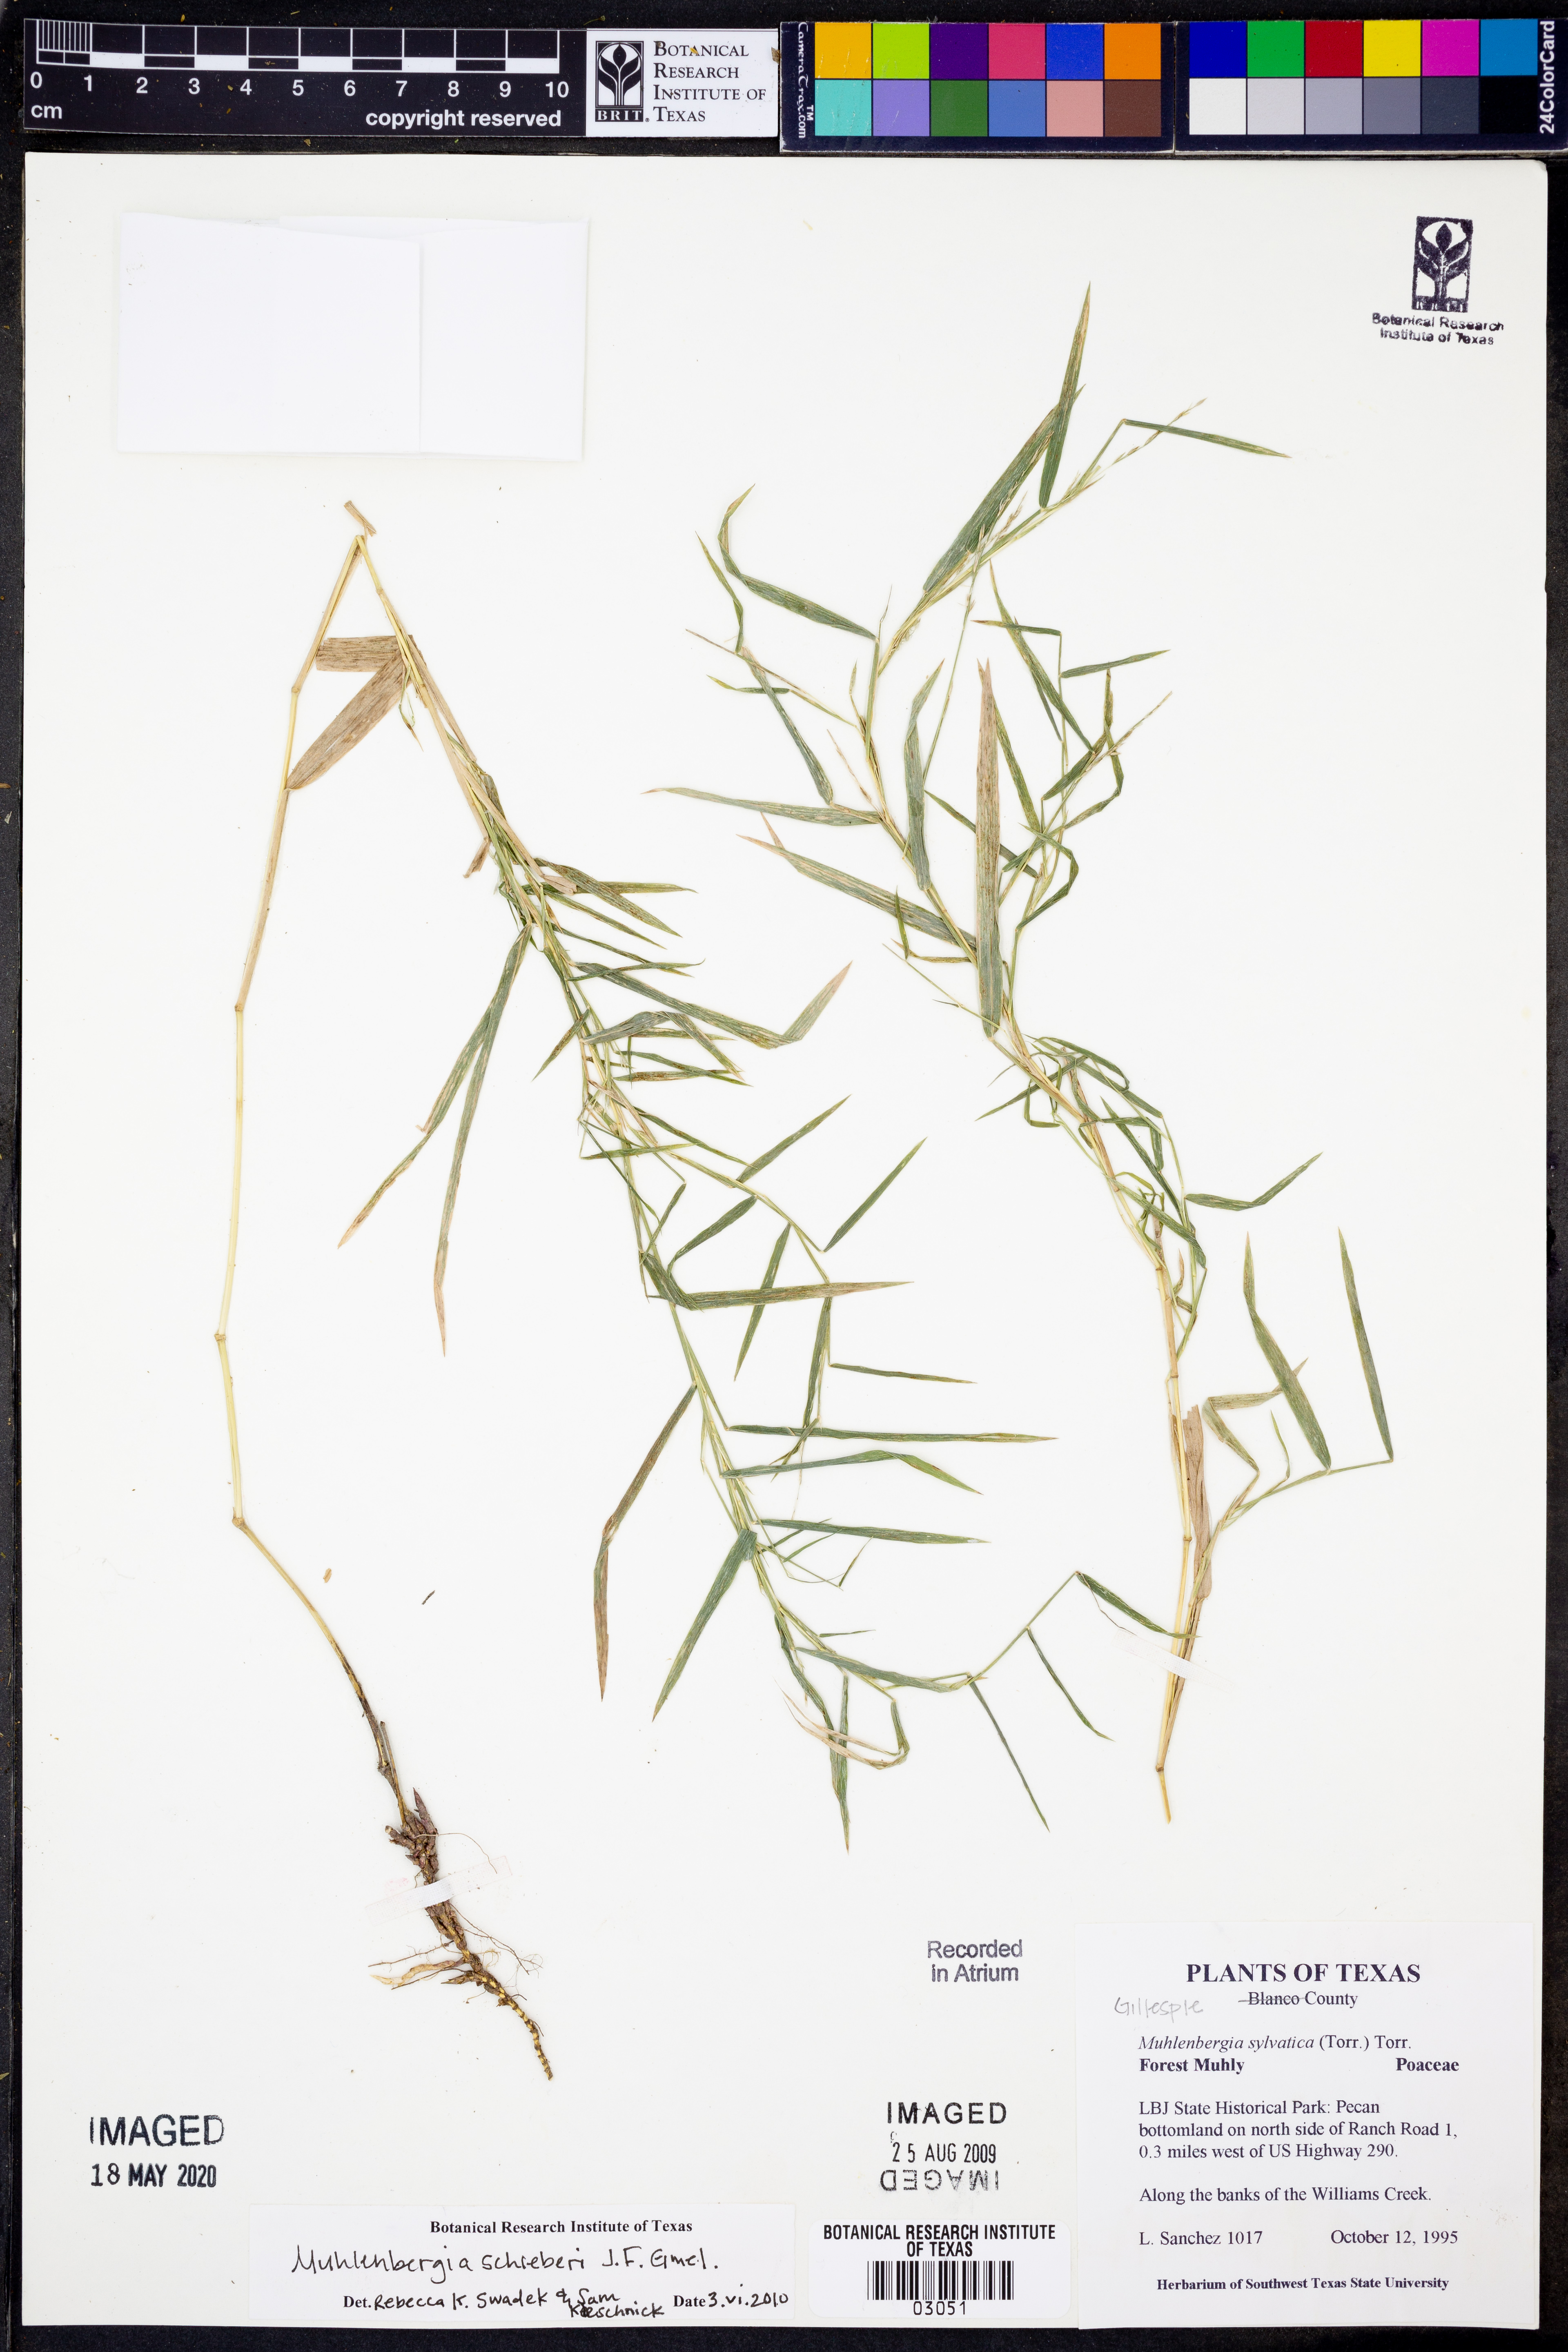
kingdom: Plantae
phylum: Tracheophyta
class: Liliopsida
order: Poales
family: Poaceae
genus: Muhlenbergia
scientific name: Muhlenbergia frondosa
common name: Common satingrass
